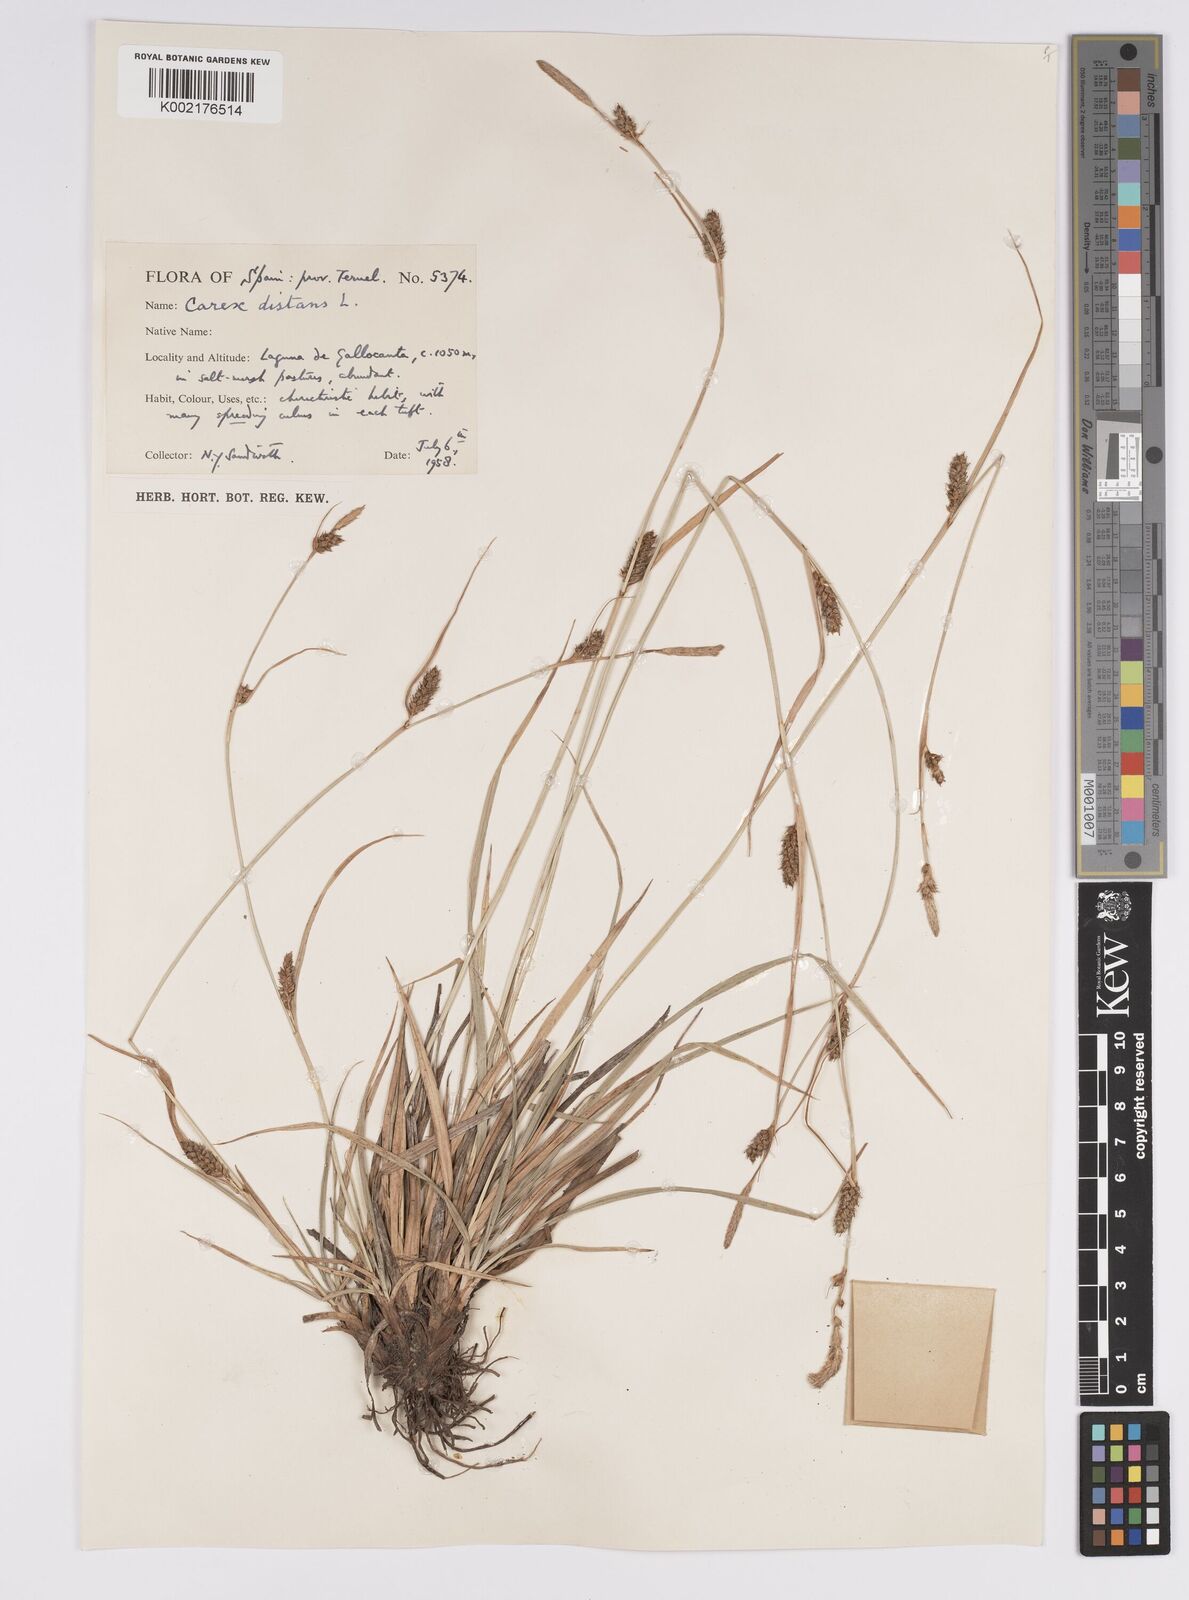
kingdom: Plantae
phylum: Tracheophyta
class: Liliopsida
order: Poales
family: Cyperaceae
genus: Carex
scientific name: Carex distans
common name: Distant sedge
